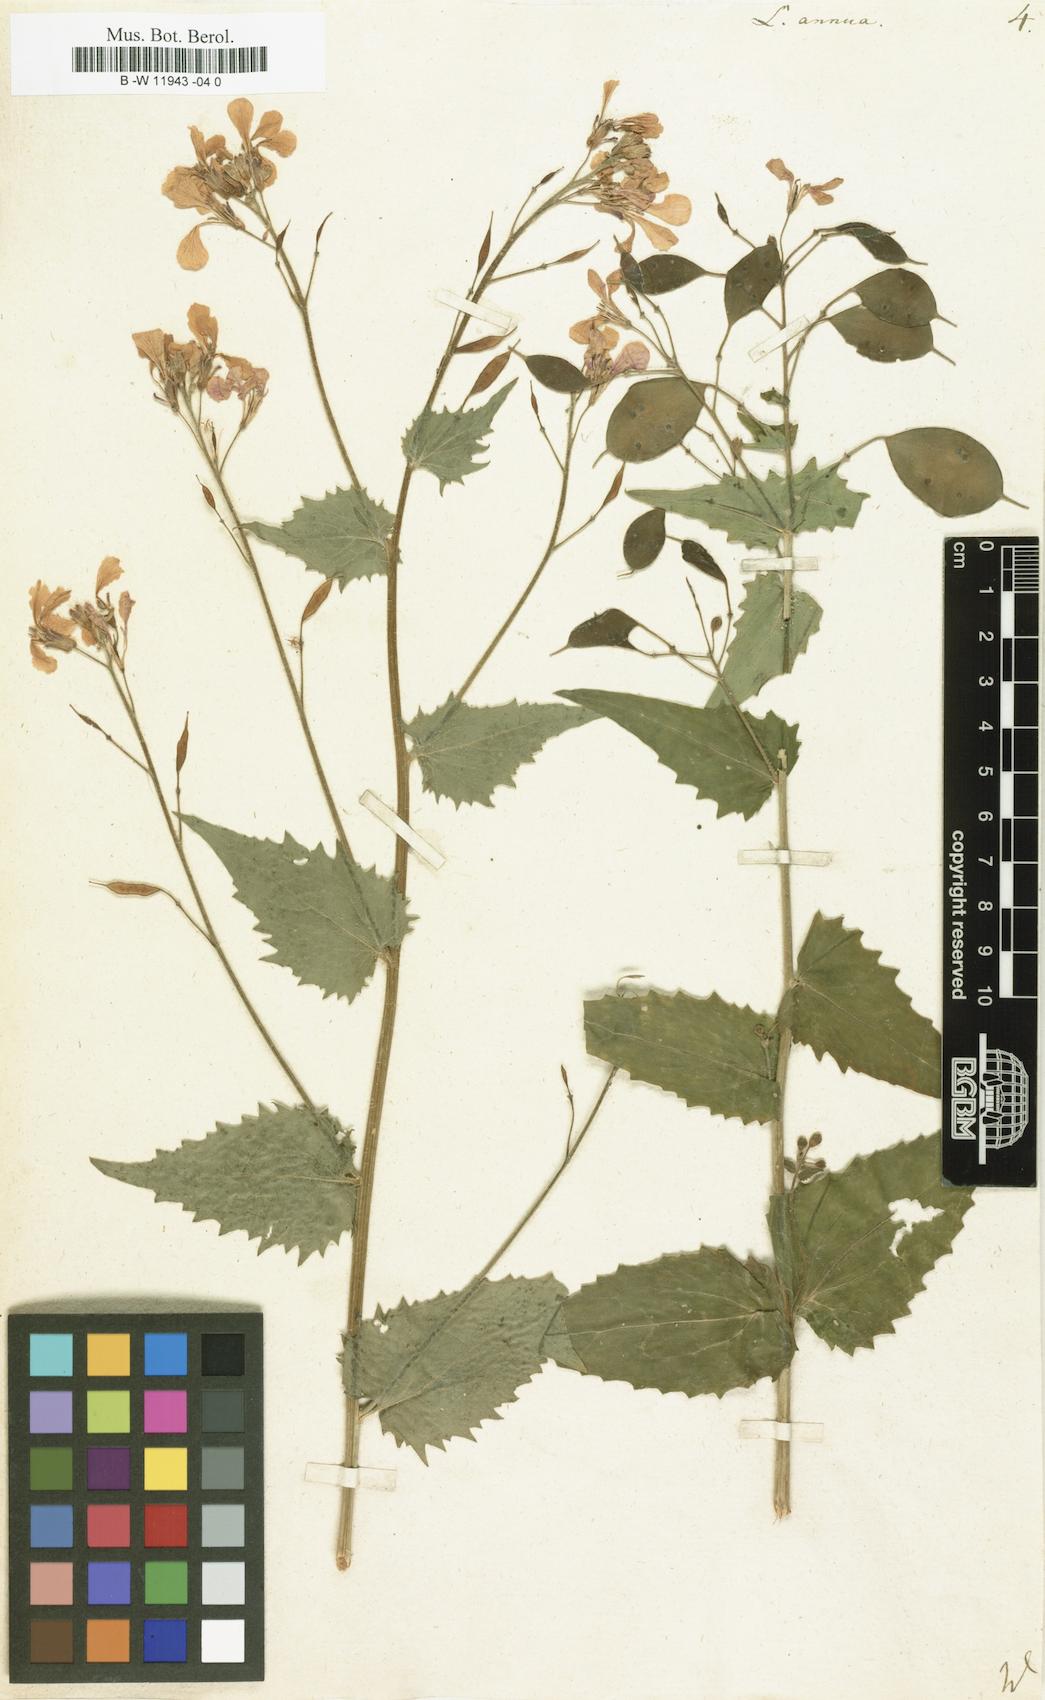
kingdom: Plantae
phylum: Tracheophyta
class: Magnoliopsida
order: Brassicales
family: Brassicaceae
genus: Lunaria
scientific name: Lunaria annua
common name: Honesty
